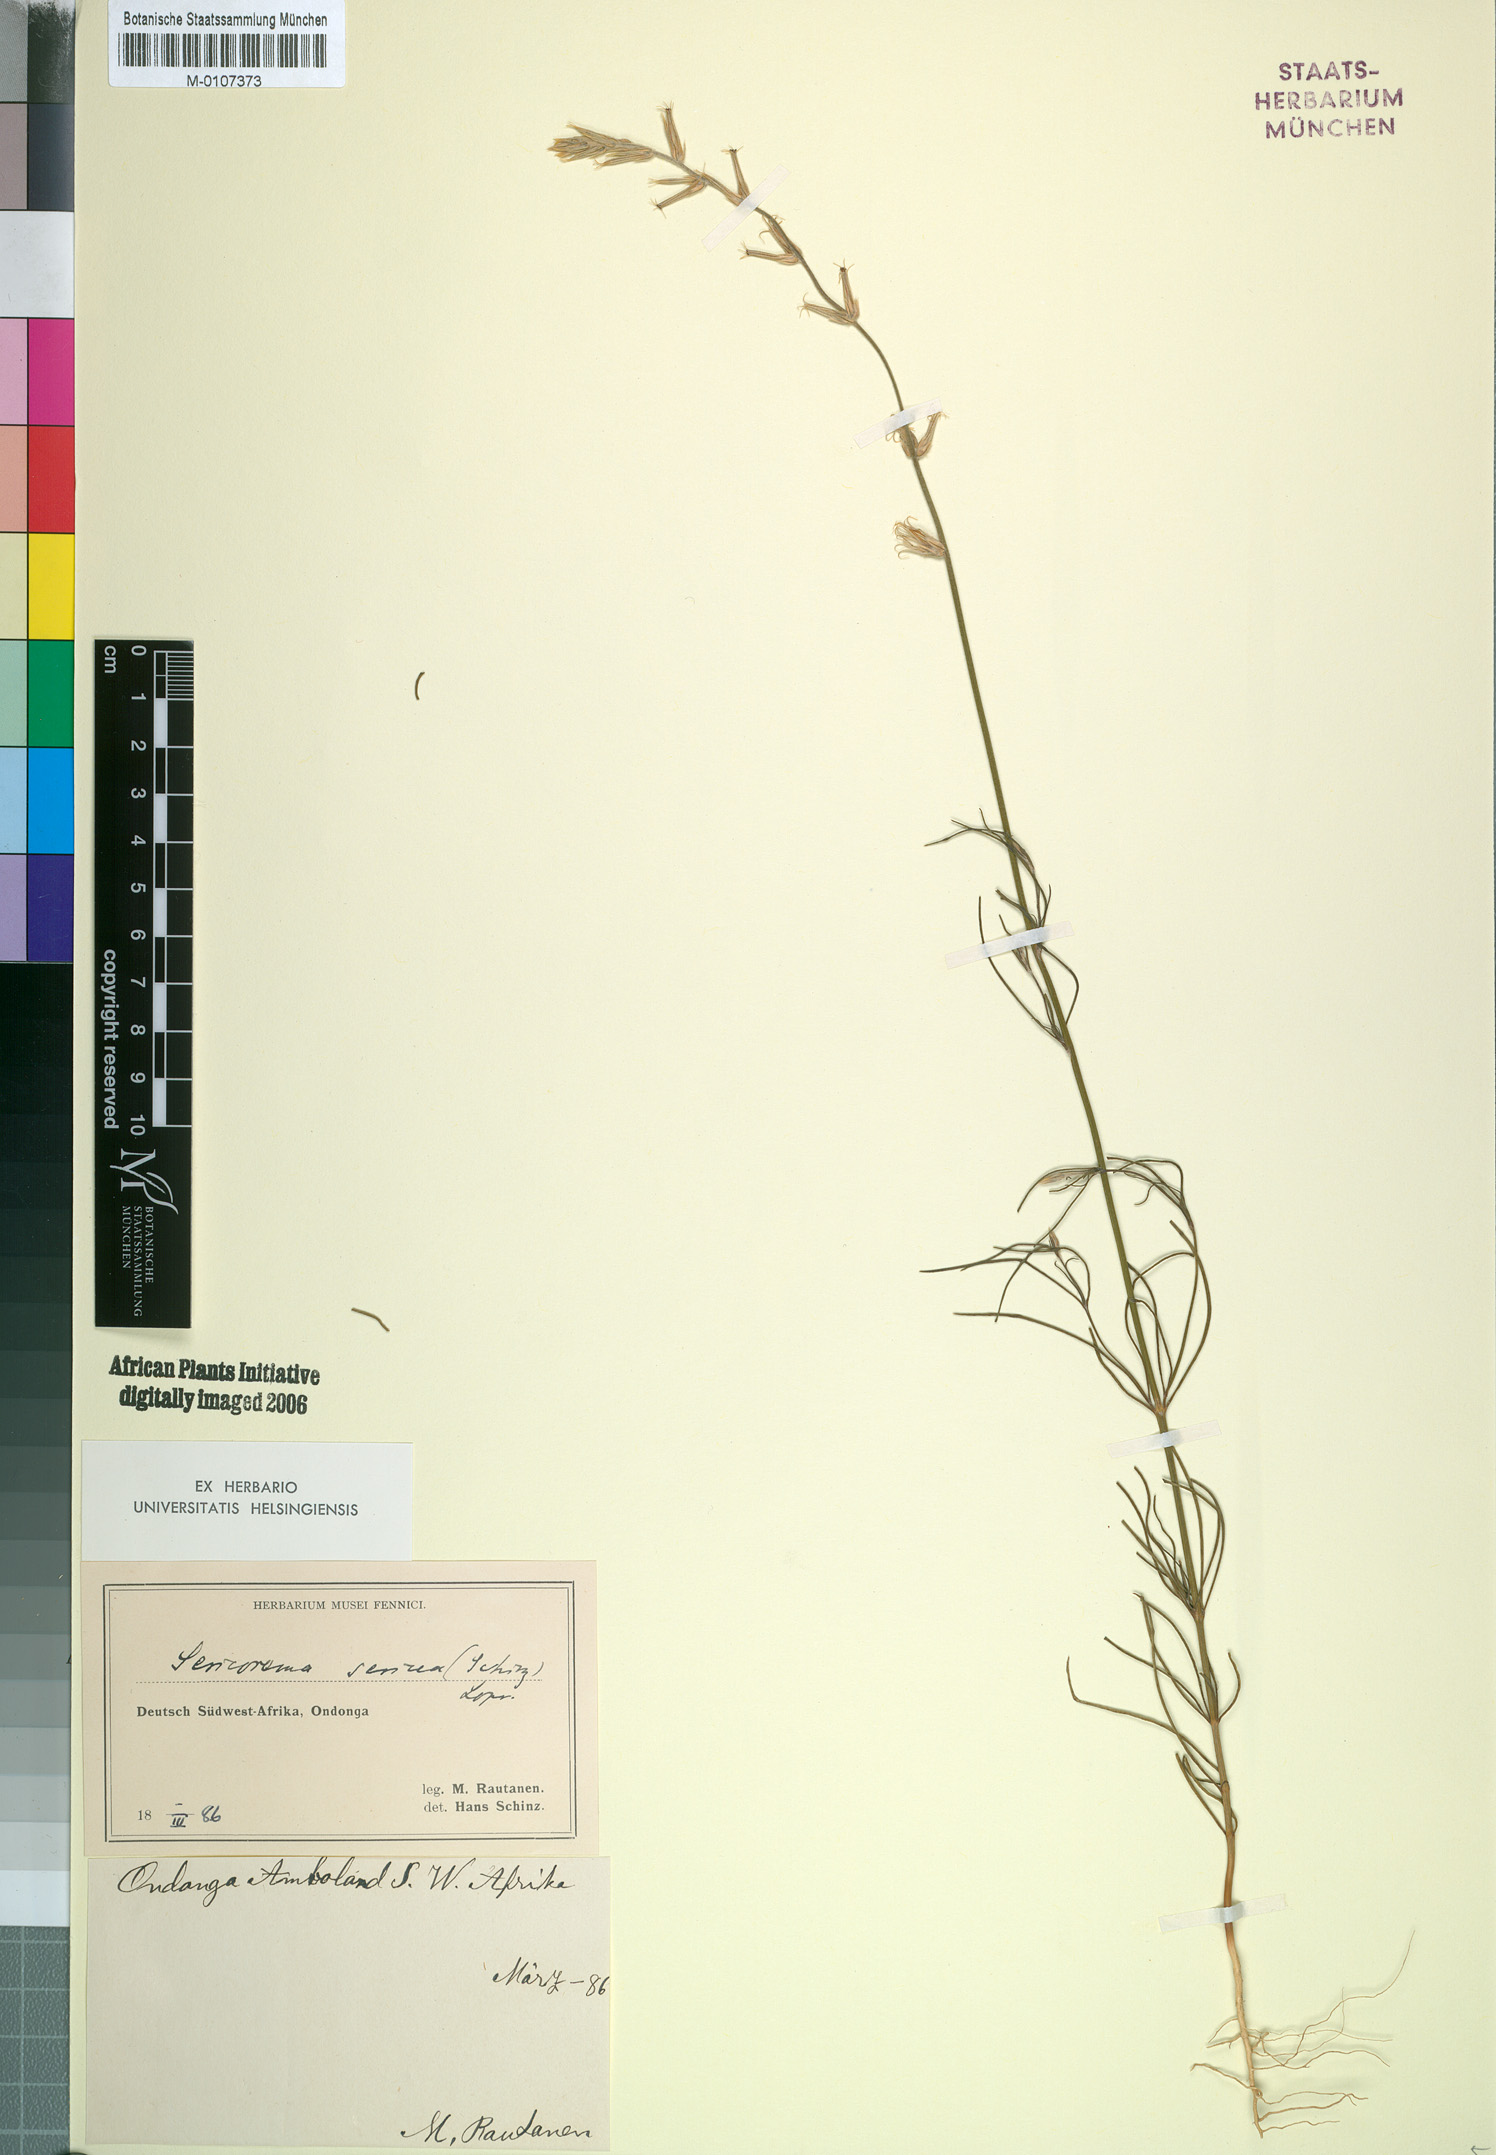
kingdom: Plantae
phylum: Tracheophyta
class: Magnoliopsida
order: Caryophyllales
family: Amaranthaceae
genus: Sericorema
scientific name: Sericorema sericea
